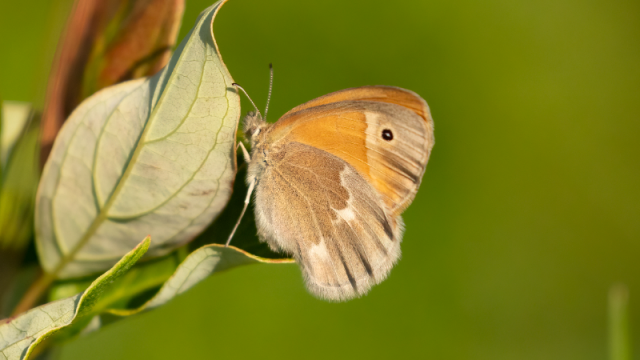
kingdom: Animalia
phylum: Arthropoda
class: Insecta
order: Lepidoptera
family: Nymphalidae
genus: Coenonympha
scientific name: Coenonympha tullia
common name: Large Heath
